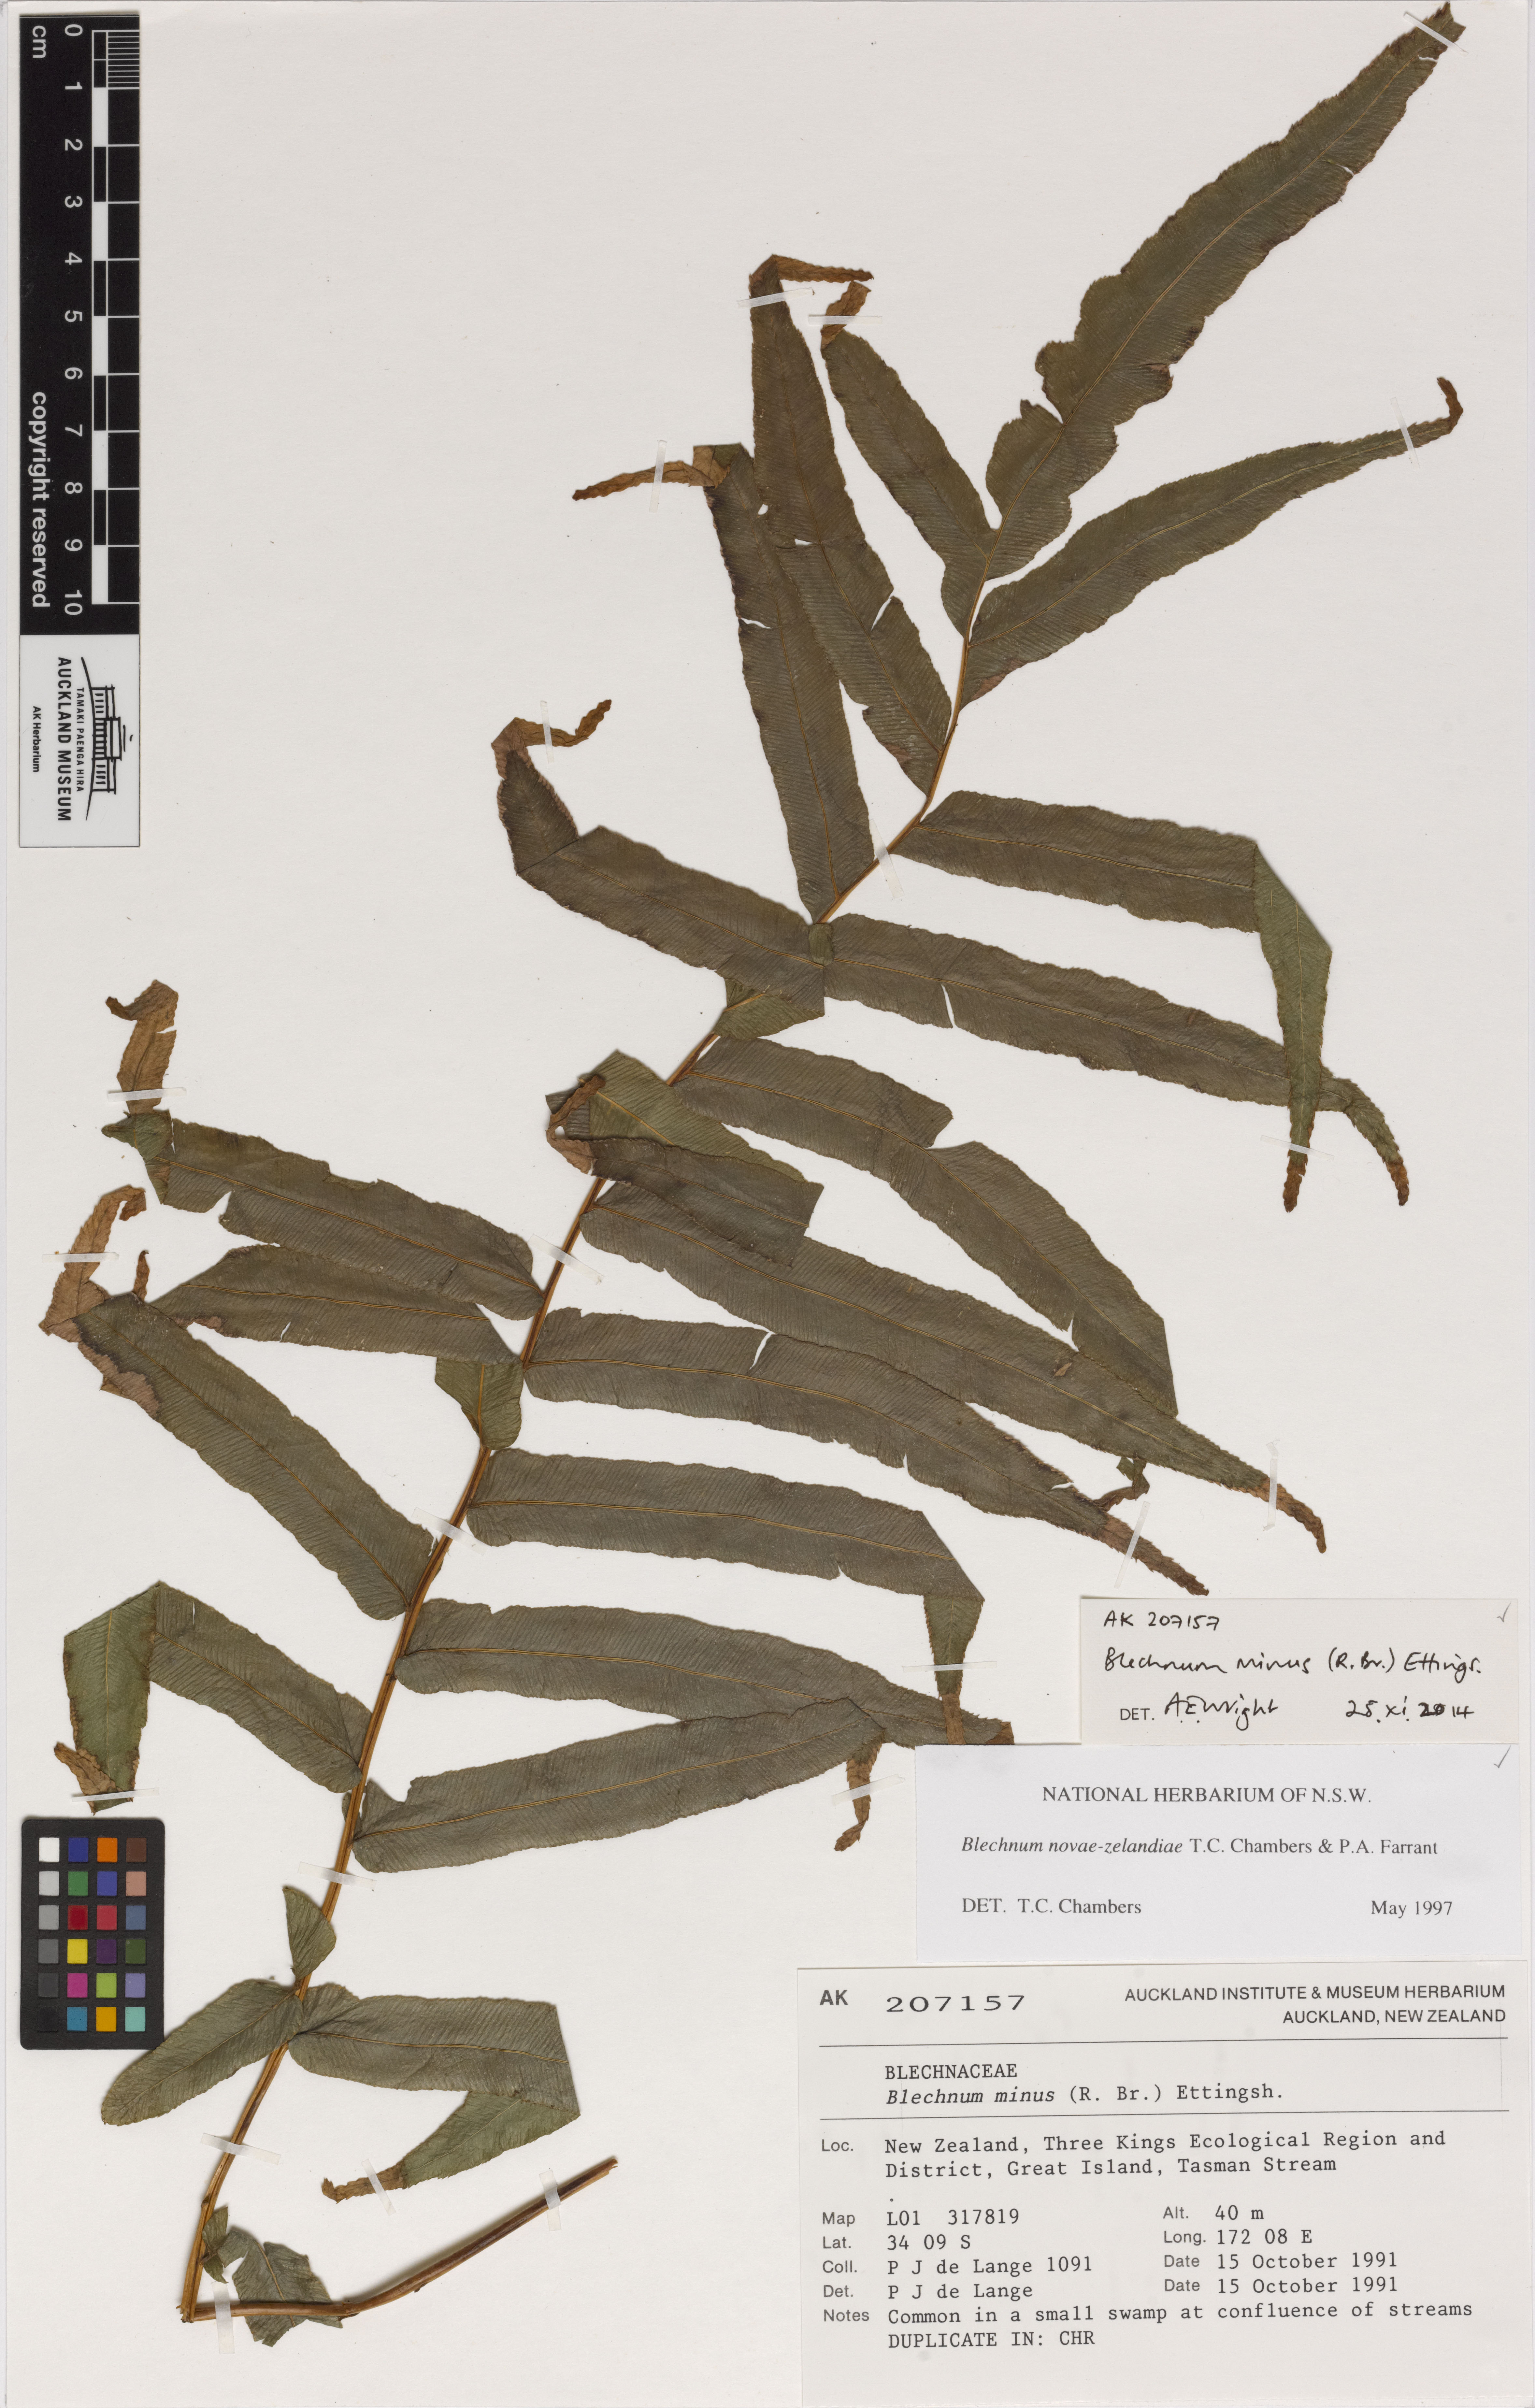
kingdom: Plantae
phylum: Tracheophyta
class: Polypodiopsida
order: Polypodiales
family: Blechnaceae
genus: Parablechnum
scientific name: Parablechnum novae-zelandiae
